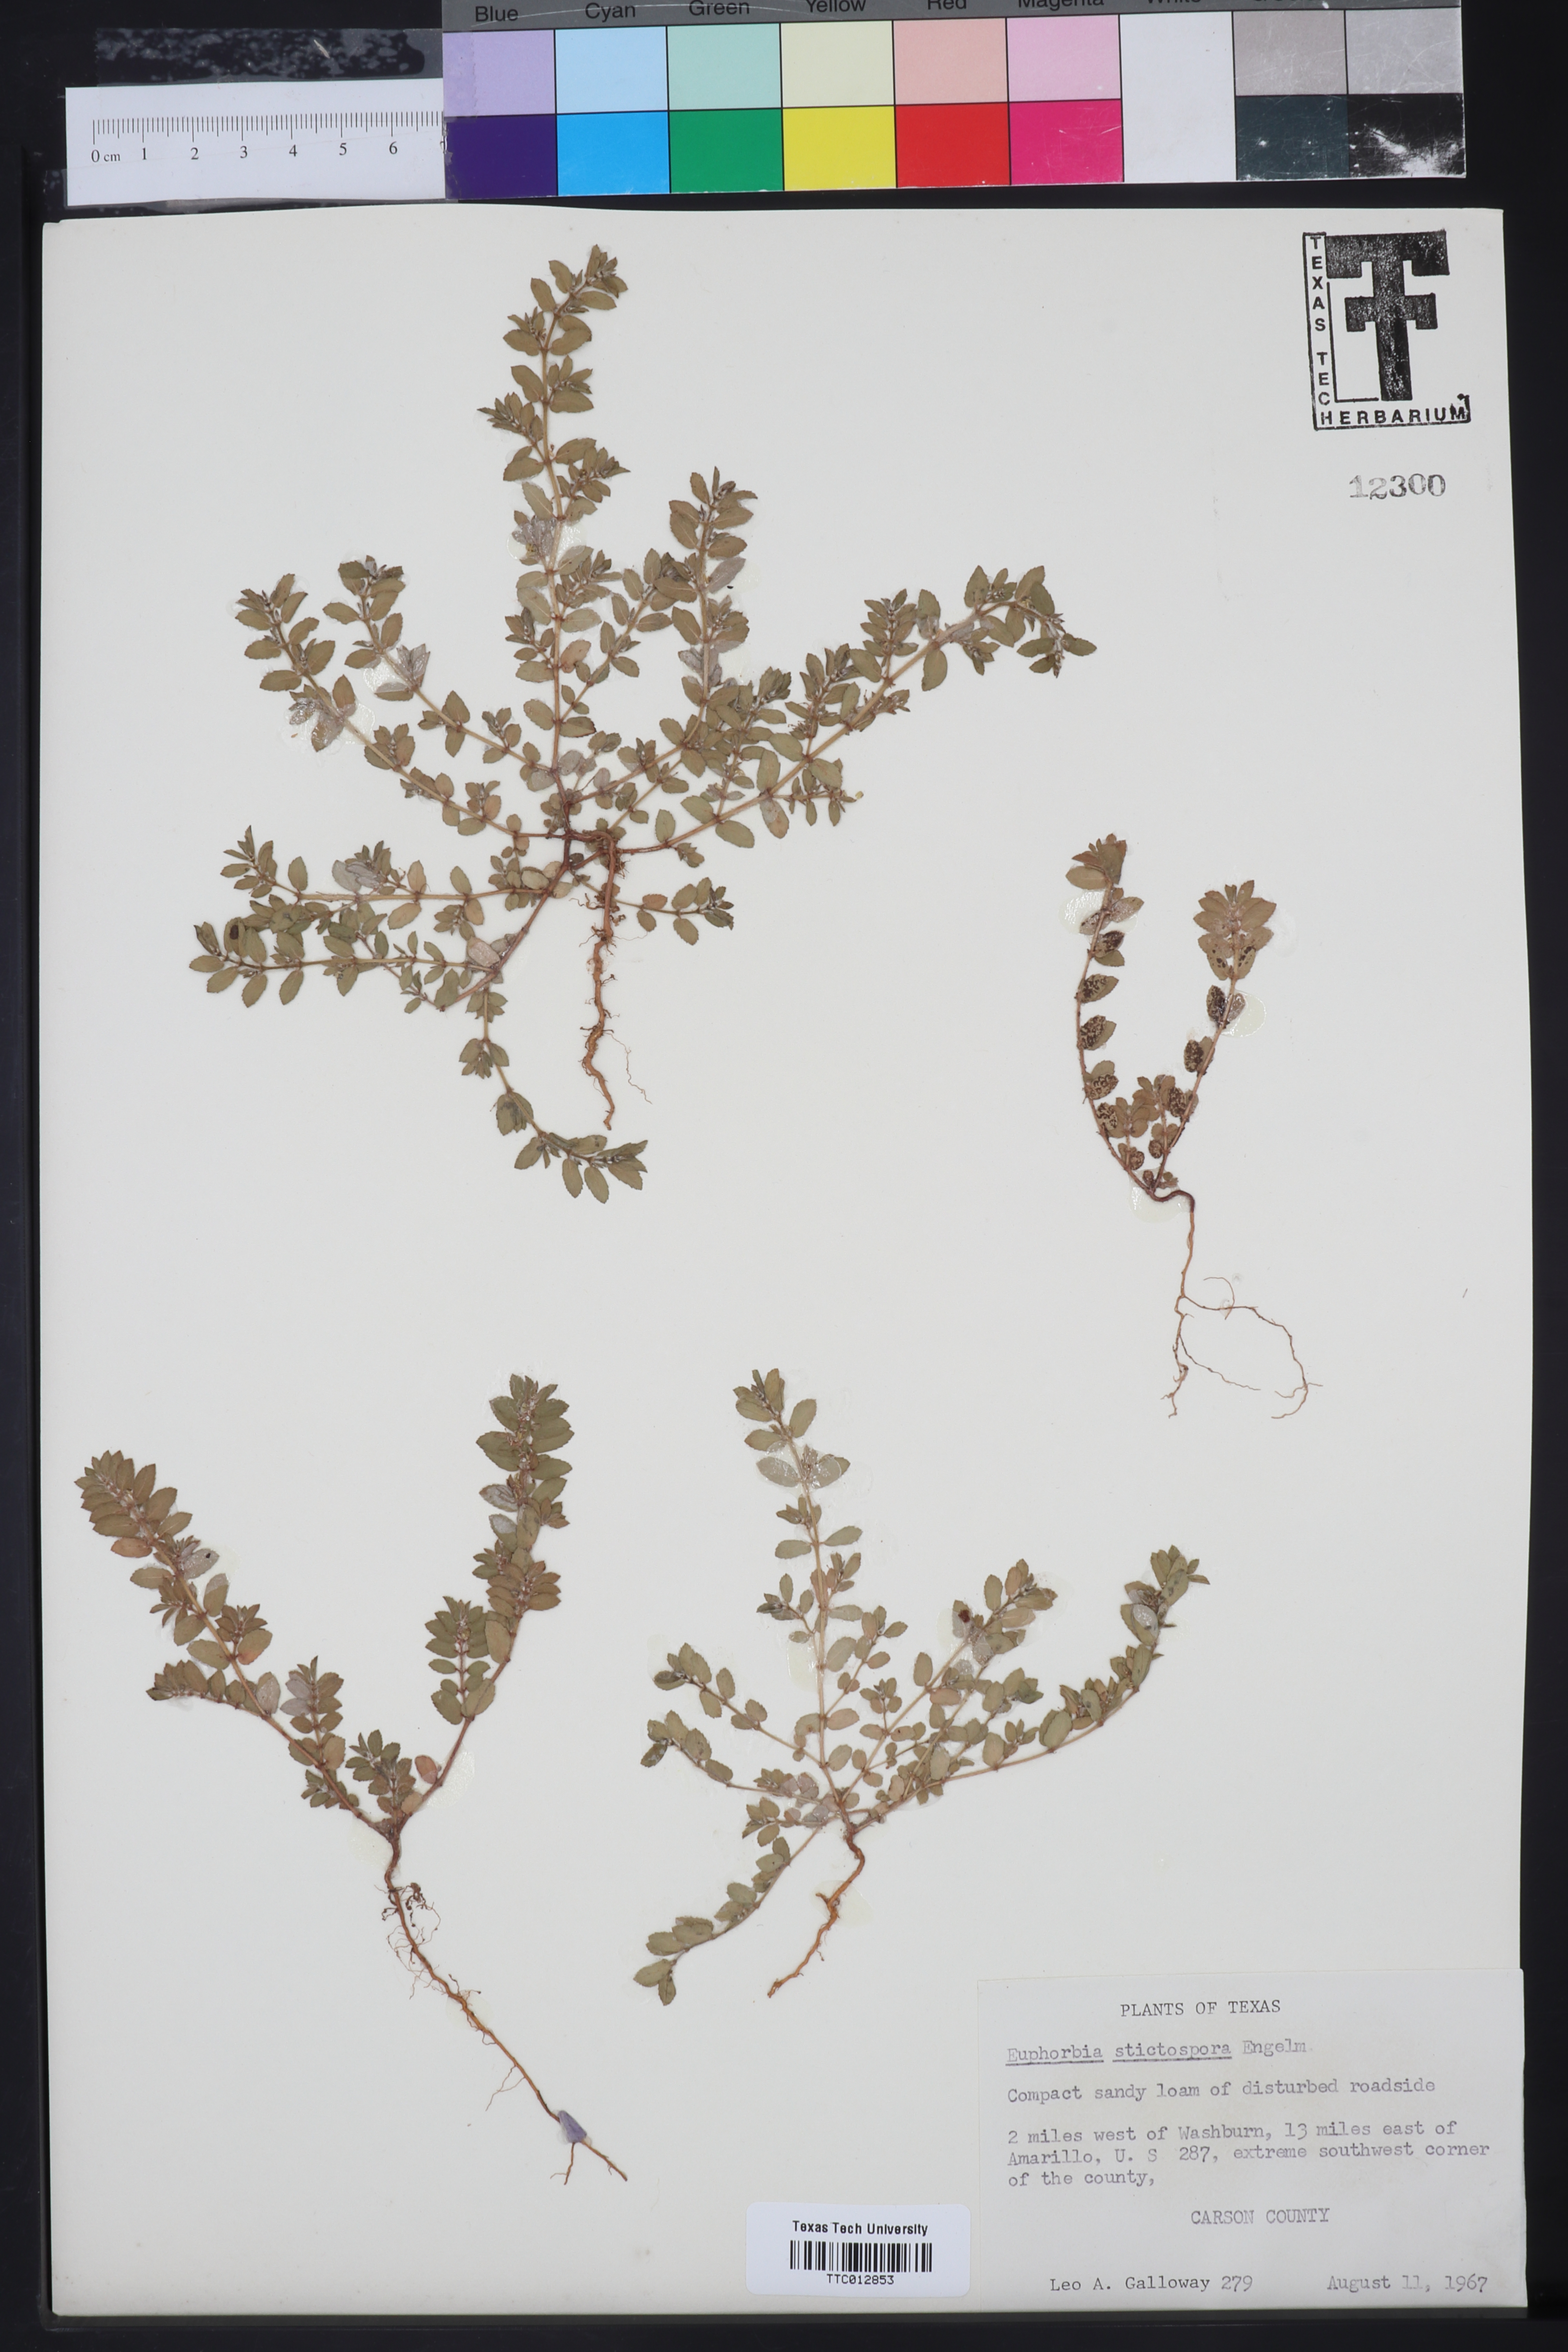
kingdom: Plantae
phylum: Tracheophyta
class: Magnoliopsida
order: Malpighiales
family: Euphorbiaceae
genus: Euphorbia
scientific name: Euphorbia stictospora
